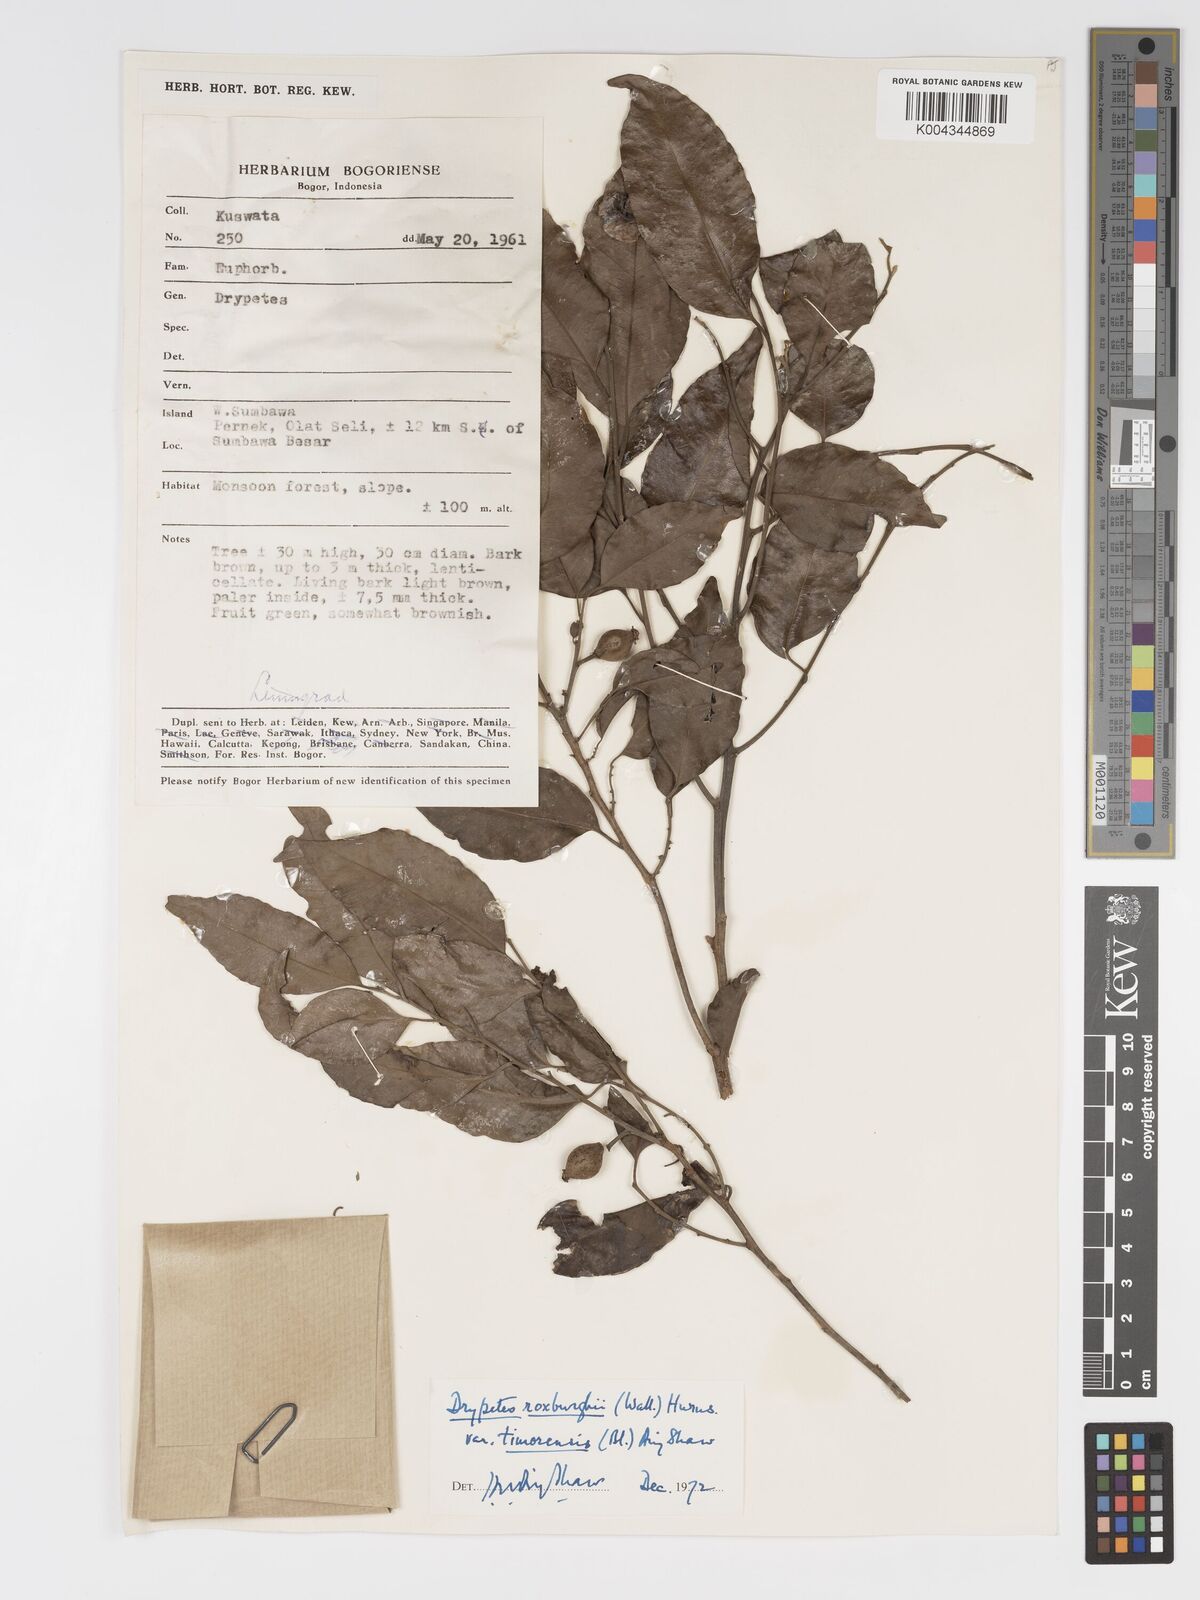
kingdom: Plantae
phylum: Tracheophyta
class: Magnoliopsida
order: Malpighiales
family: Putranjivaceae
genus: Putranjiva
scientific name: Putranjiva roxburghii
